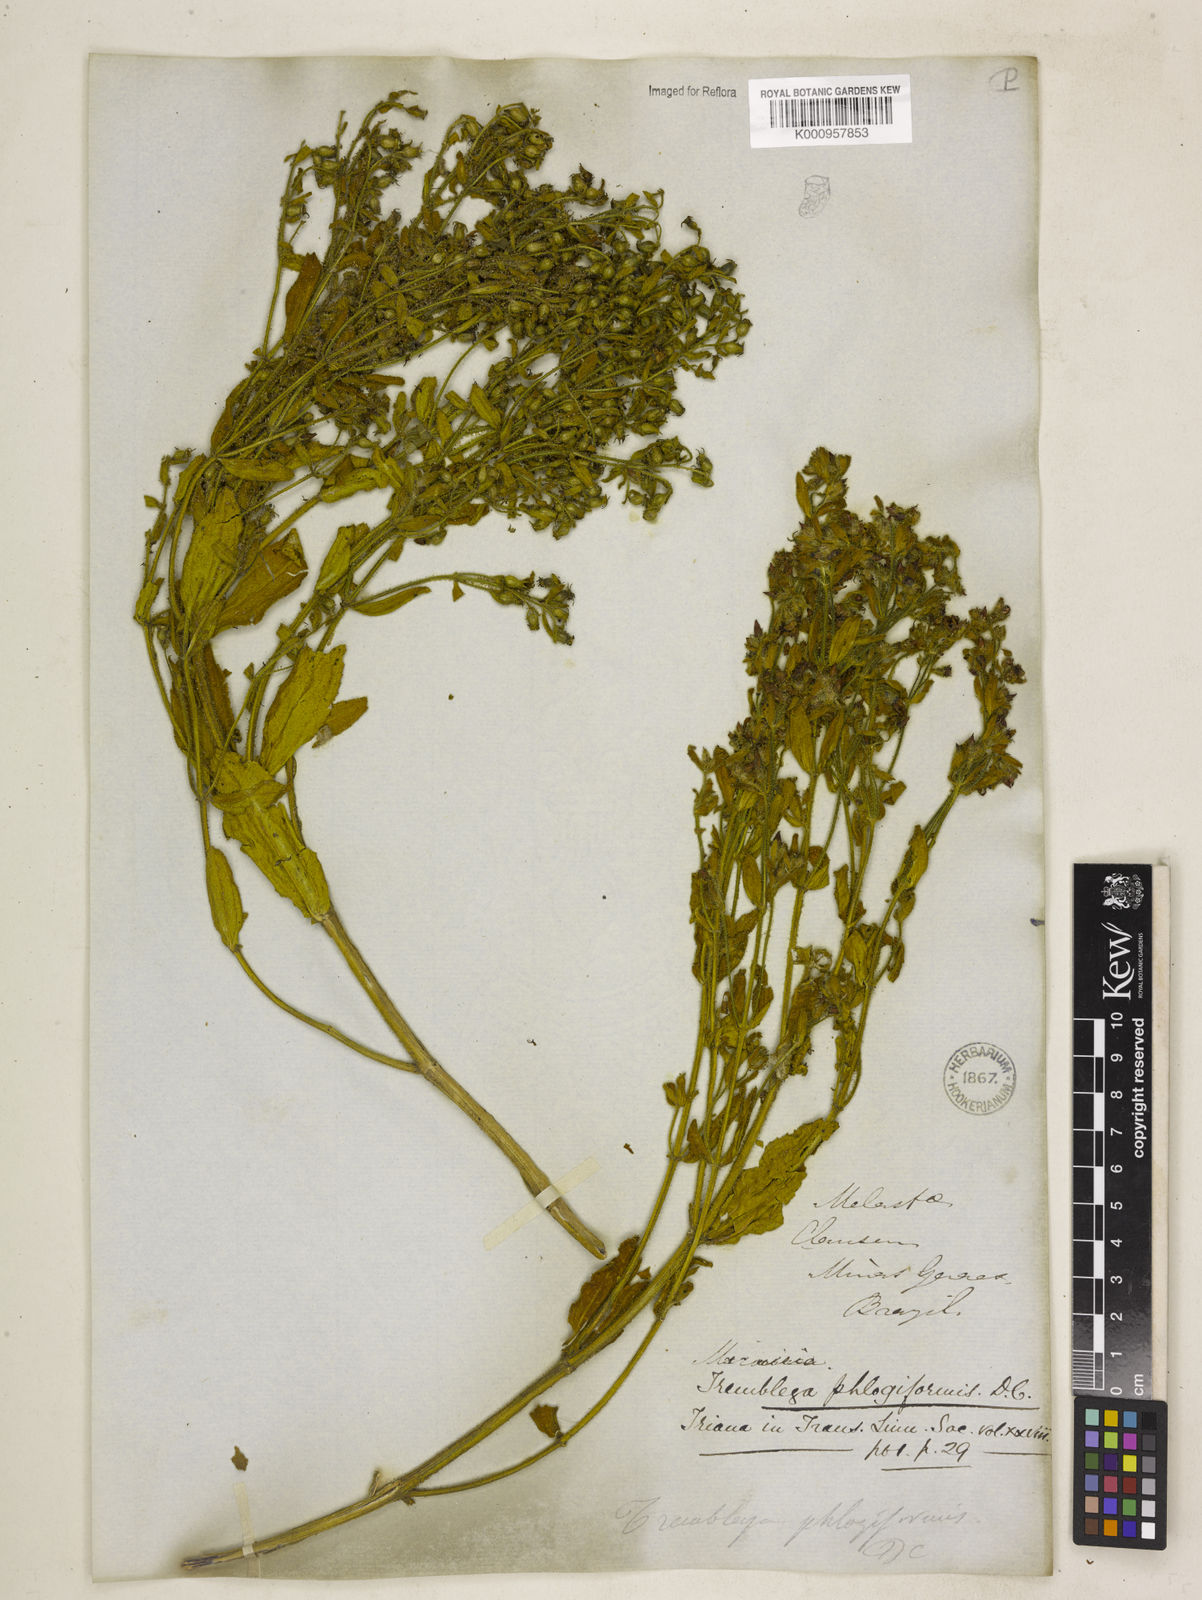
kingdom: Plantae
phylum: Tracheophyta
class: Magnoliopsida
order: Myrtales
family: Melastomataceae
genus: Microlicia
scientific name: Microlicia phlogiformis
